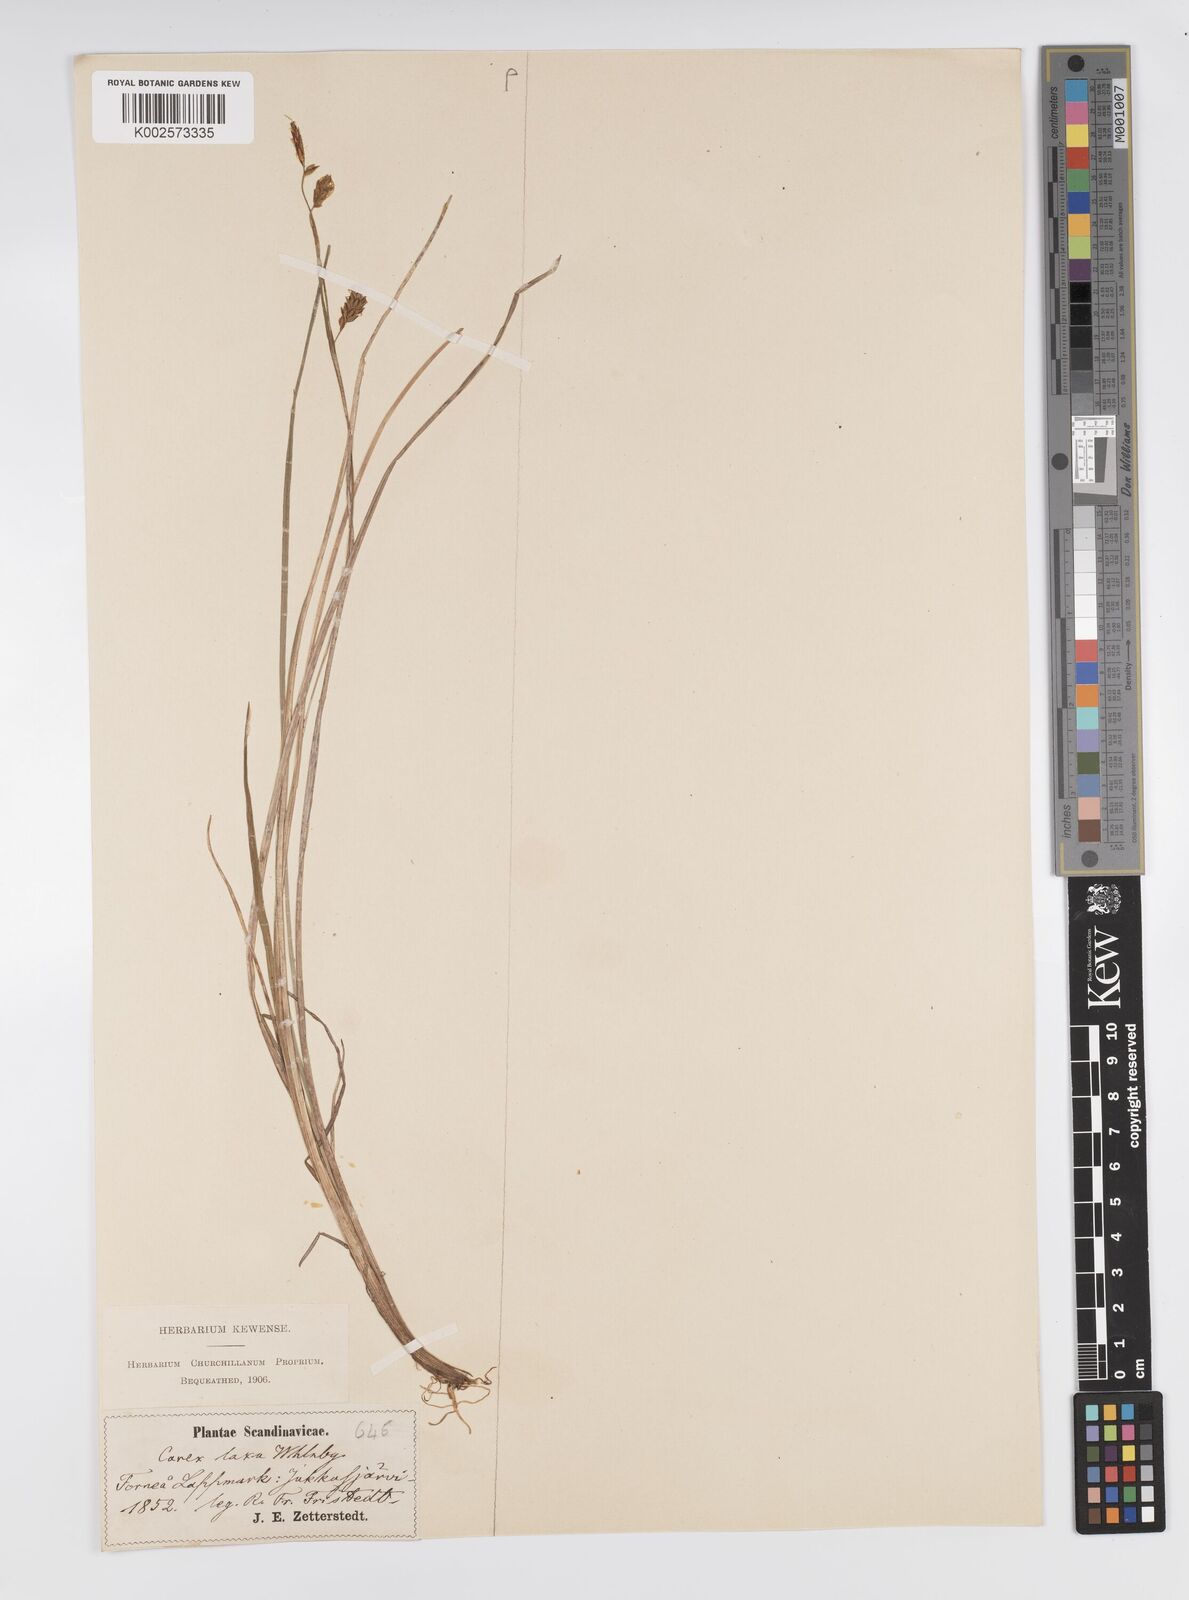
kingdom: Plantae
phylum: Tracheophyta
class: Liliopsida
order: Poales
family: Cyperaceae
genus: Carex
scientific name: Carex laxa
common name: Weak sedge
